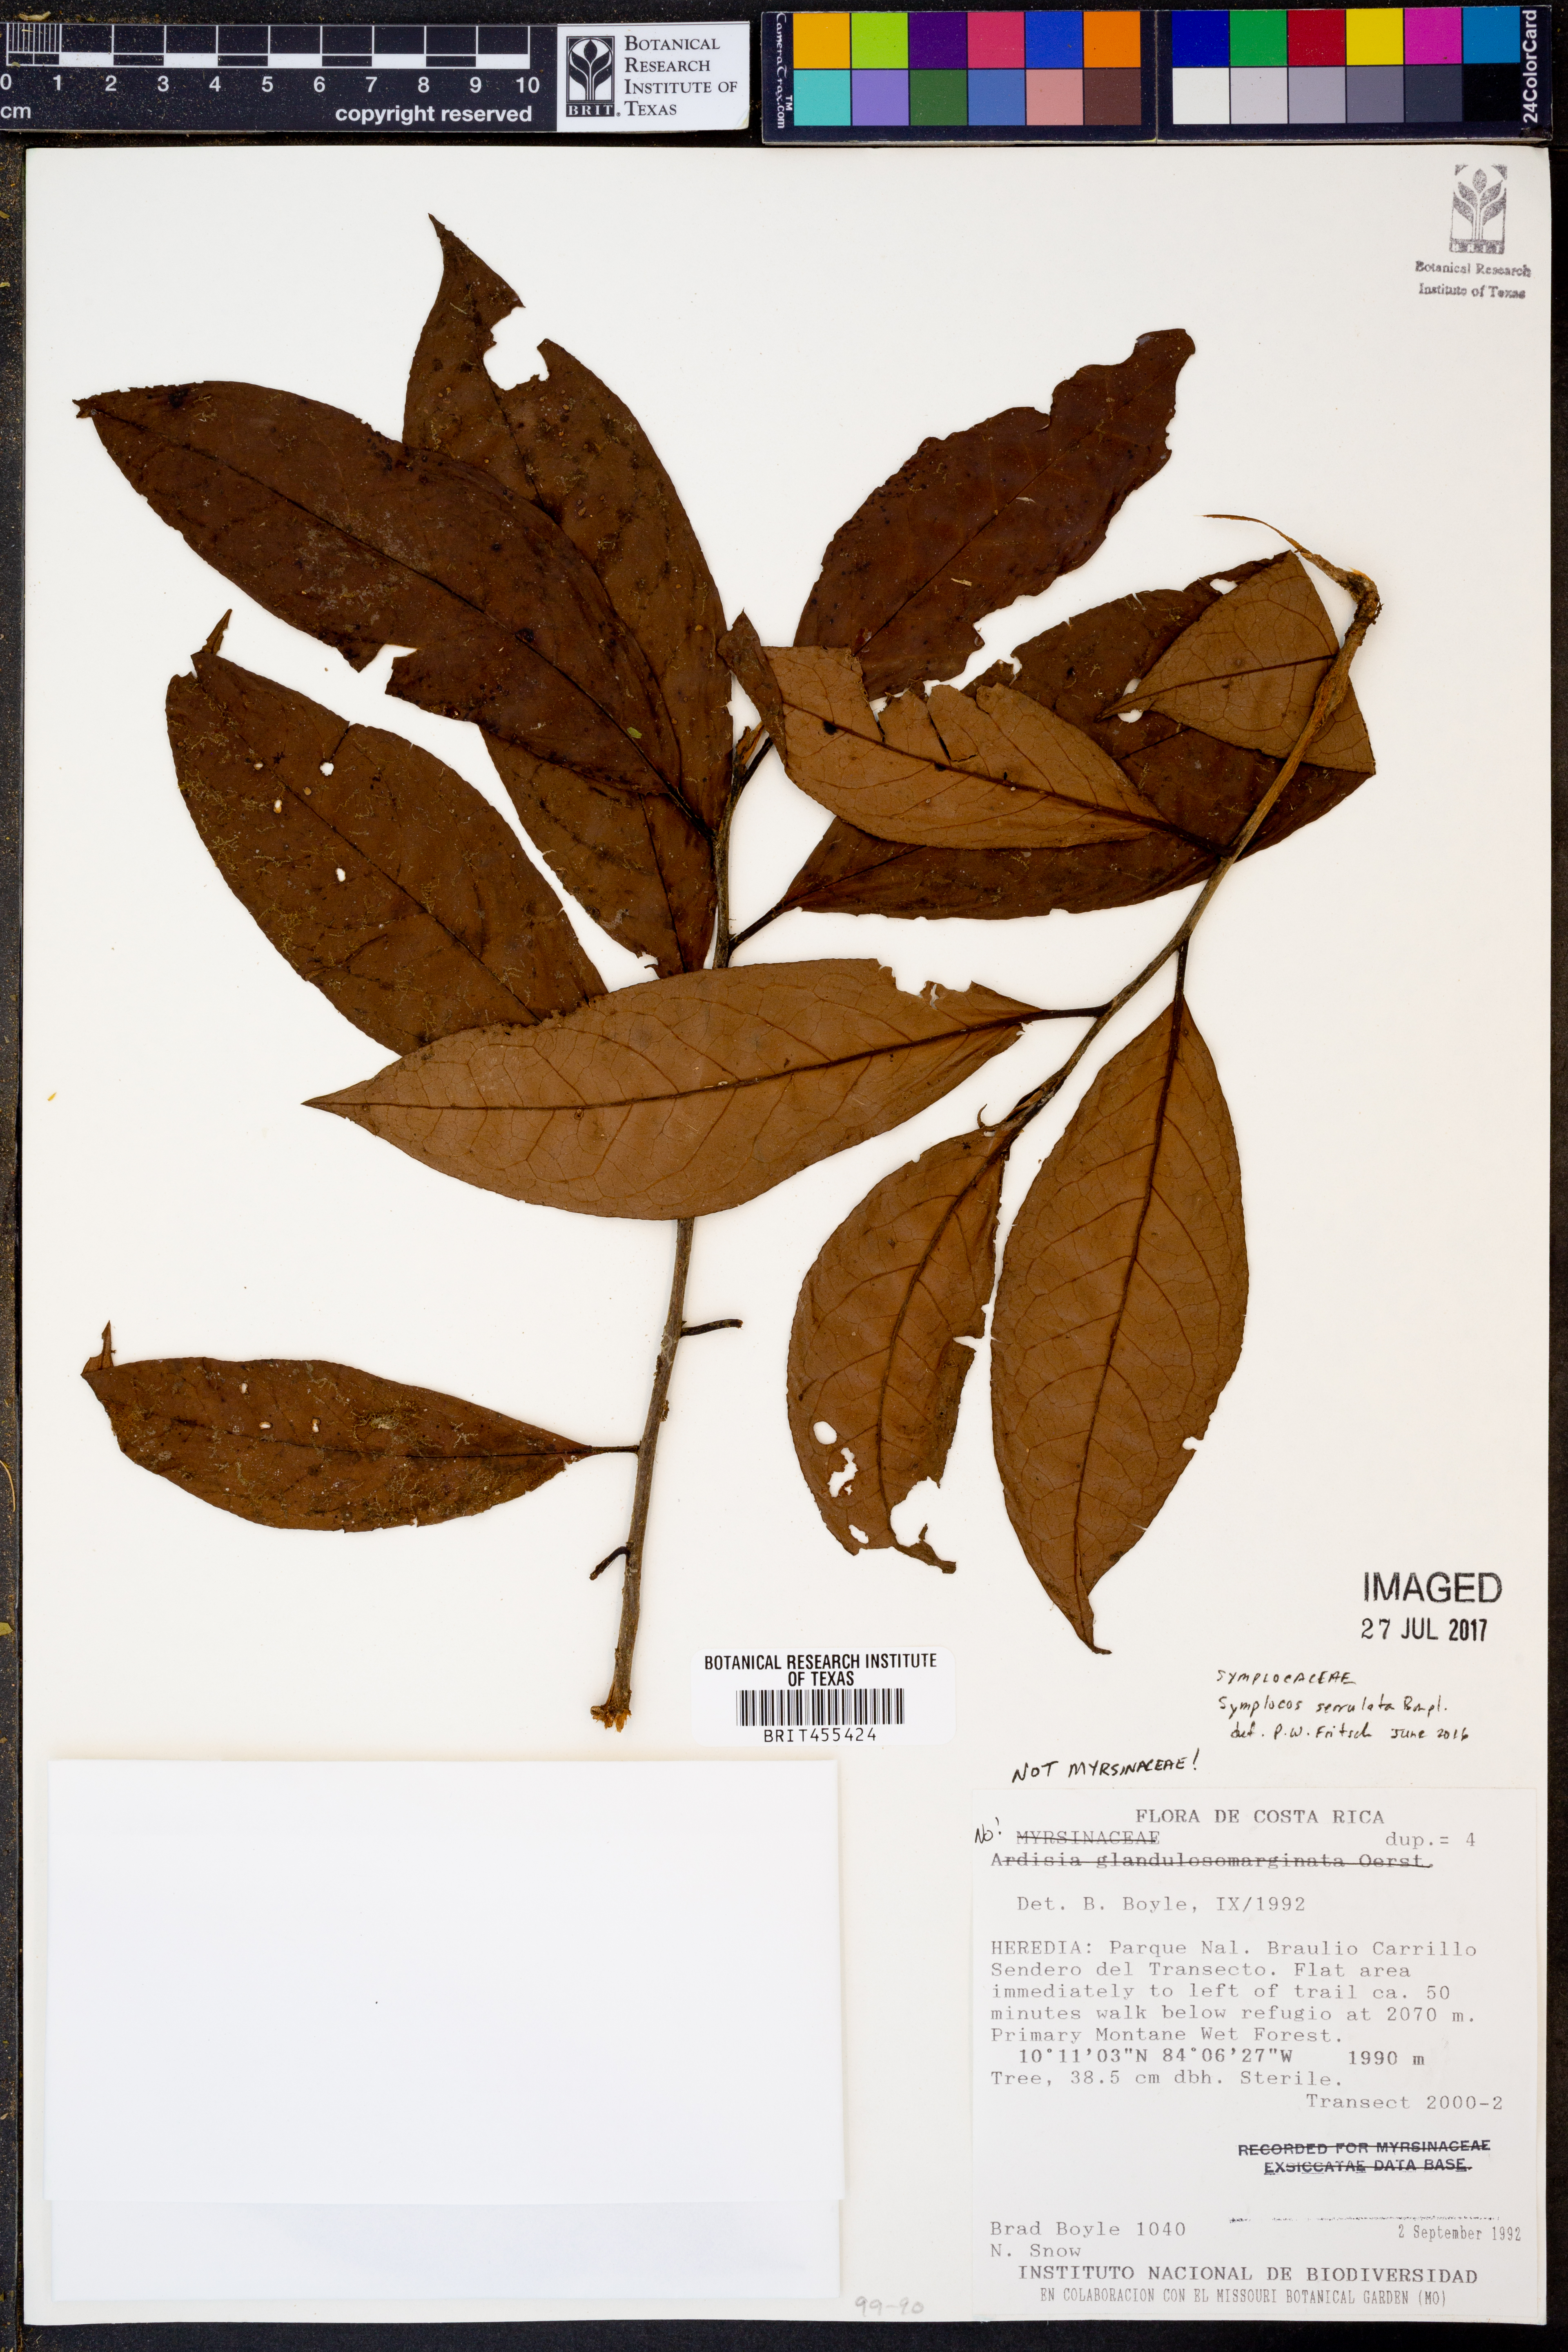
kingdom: Plantae
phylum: Tracheophyta
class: Magnoliopsida
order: Ericales
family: Symplocaceae
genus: Symplocos
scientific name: Symplocos serrulata
